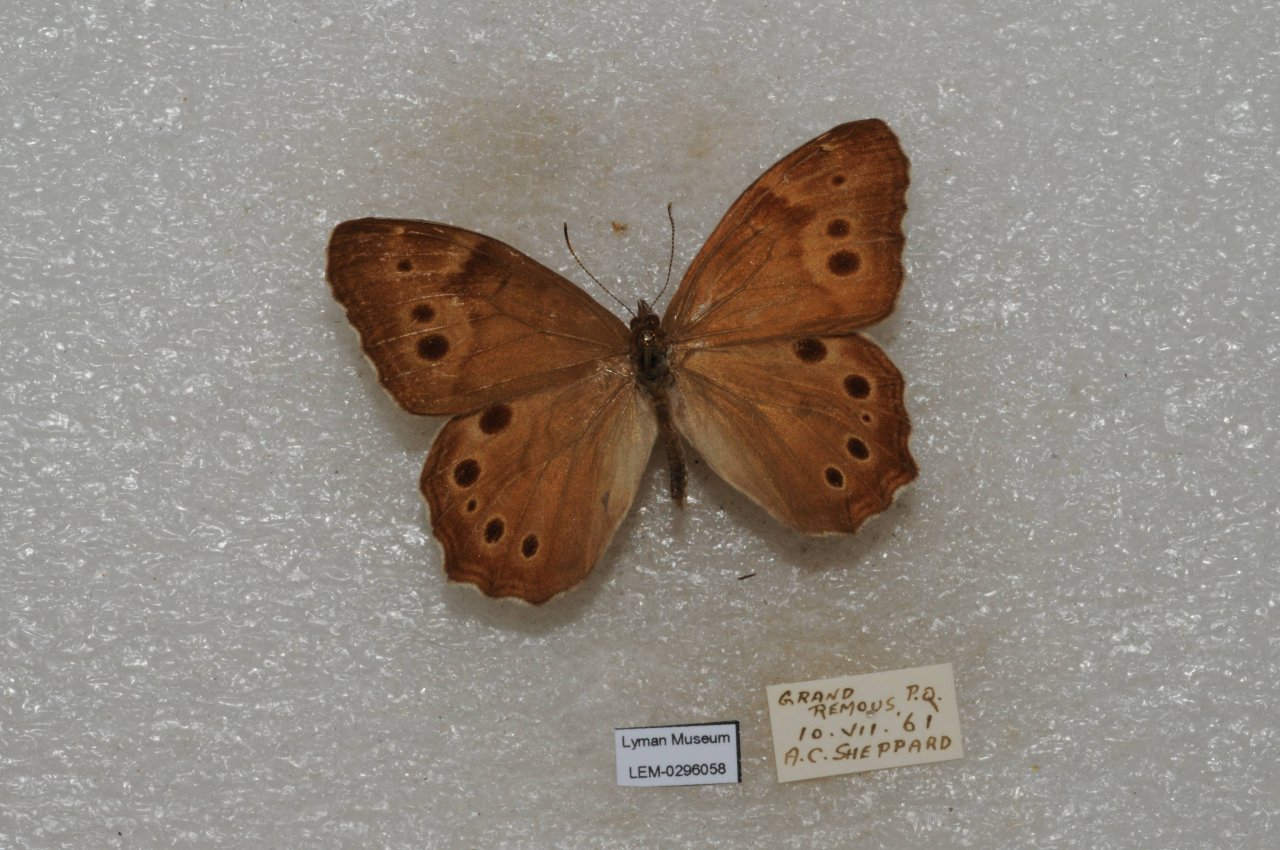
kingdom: Animalia
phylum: Arthropoda
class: Insecta
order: Lepidoptera
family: Nymphalidae
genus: Lethe
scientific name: Lethe anthedon
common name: Northern Pearly-Eye
